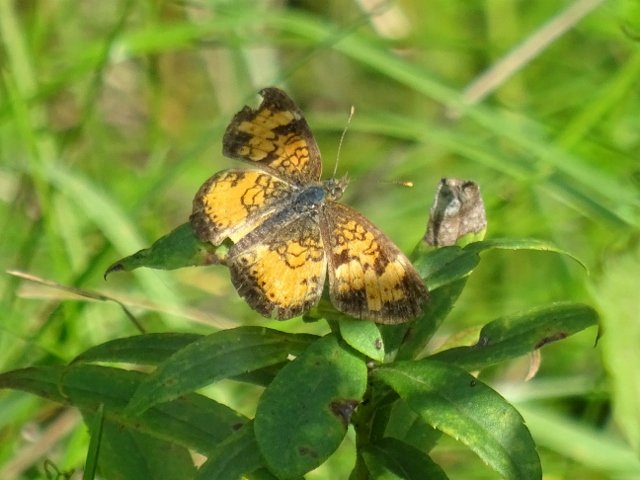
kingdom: Animalia
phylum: Arthropoda
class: Insecta
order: Lepidoptera
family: Nymphalidae
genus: Phyciodes
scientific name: Phyciodes tharos
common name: Northern Crescent
